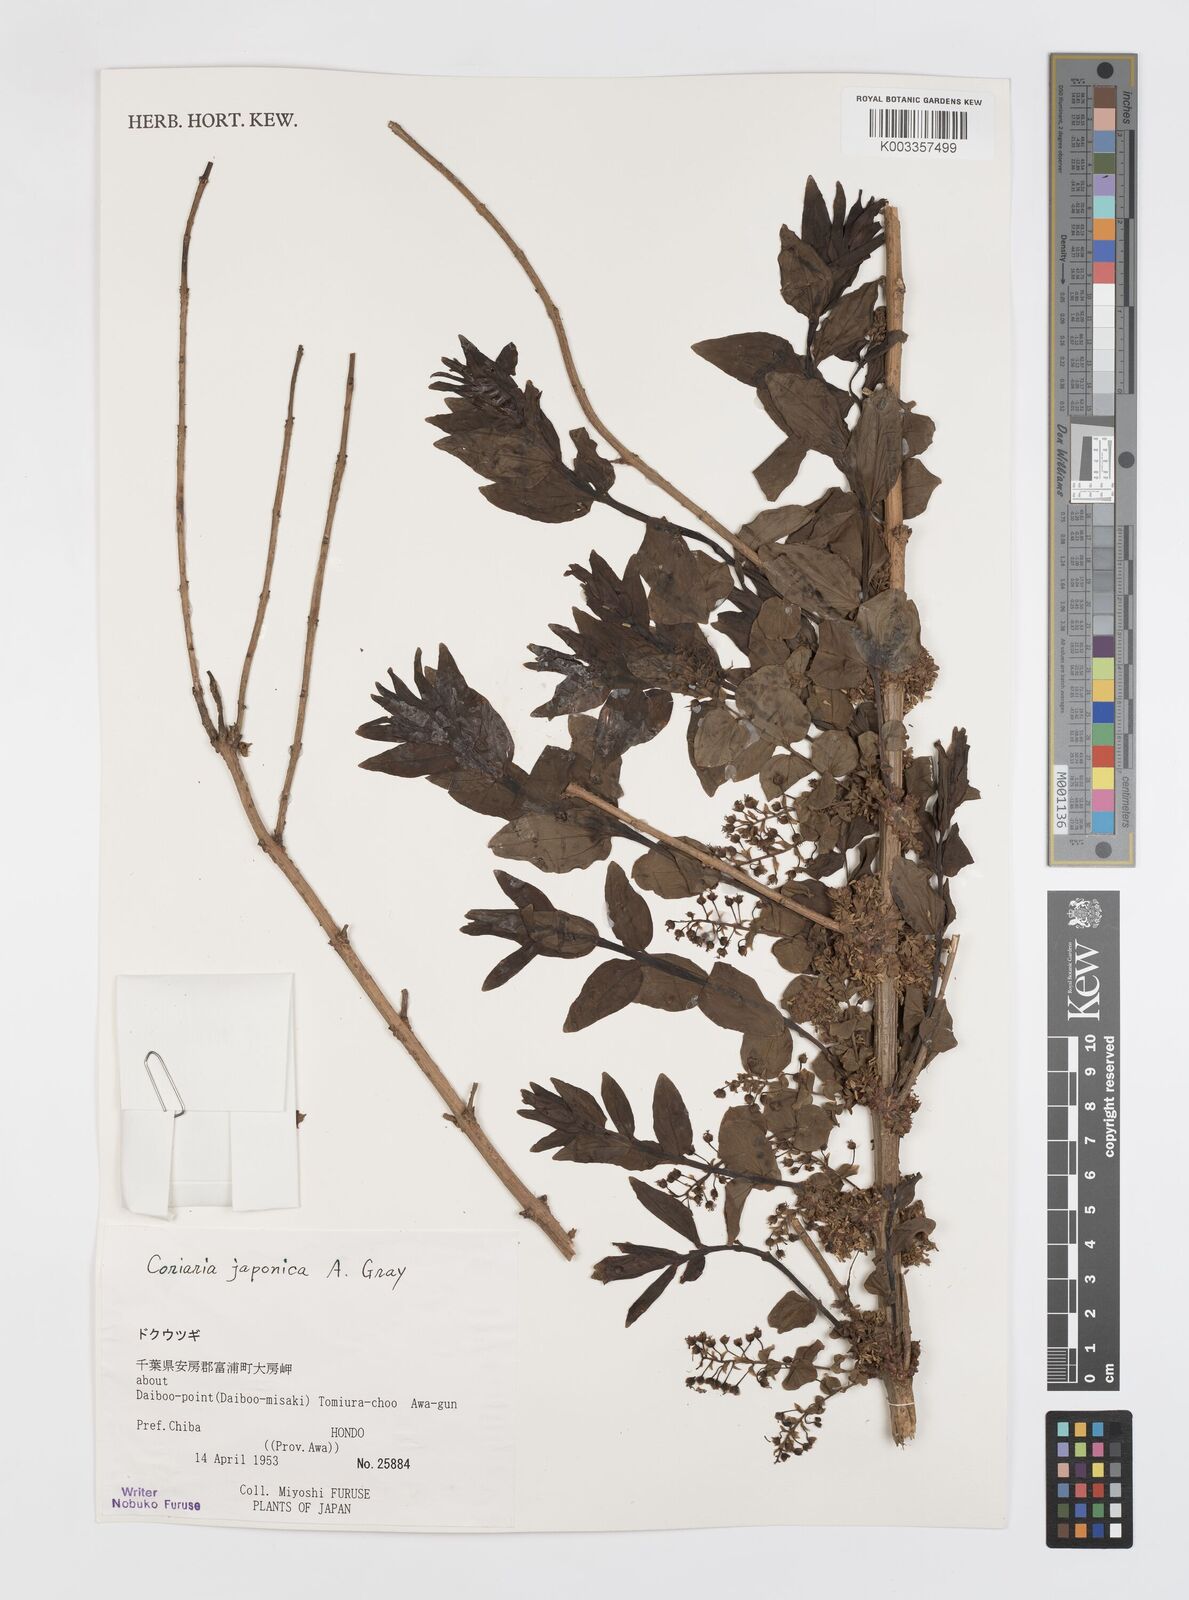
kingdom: Plantae
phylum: Tracheophyta
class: Magnoliopsida
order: Cucurbitales
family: Coriariaceae
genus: Coriaria
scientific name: Coriaria japonica
